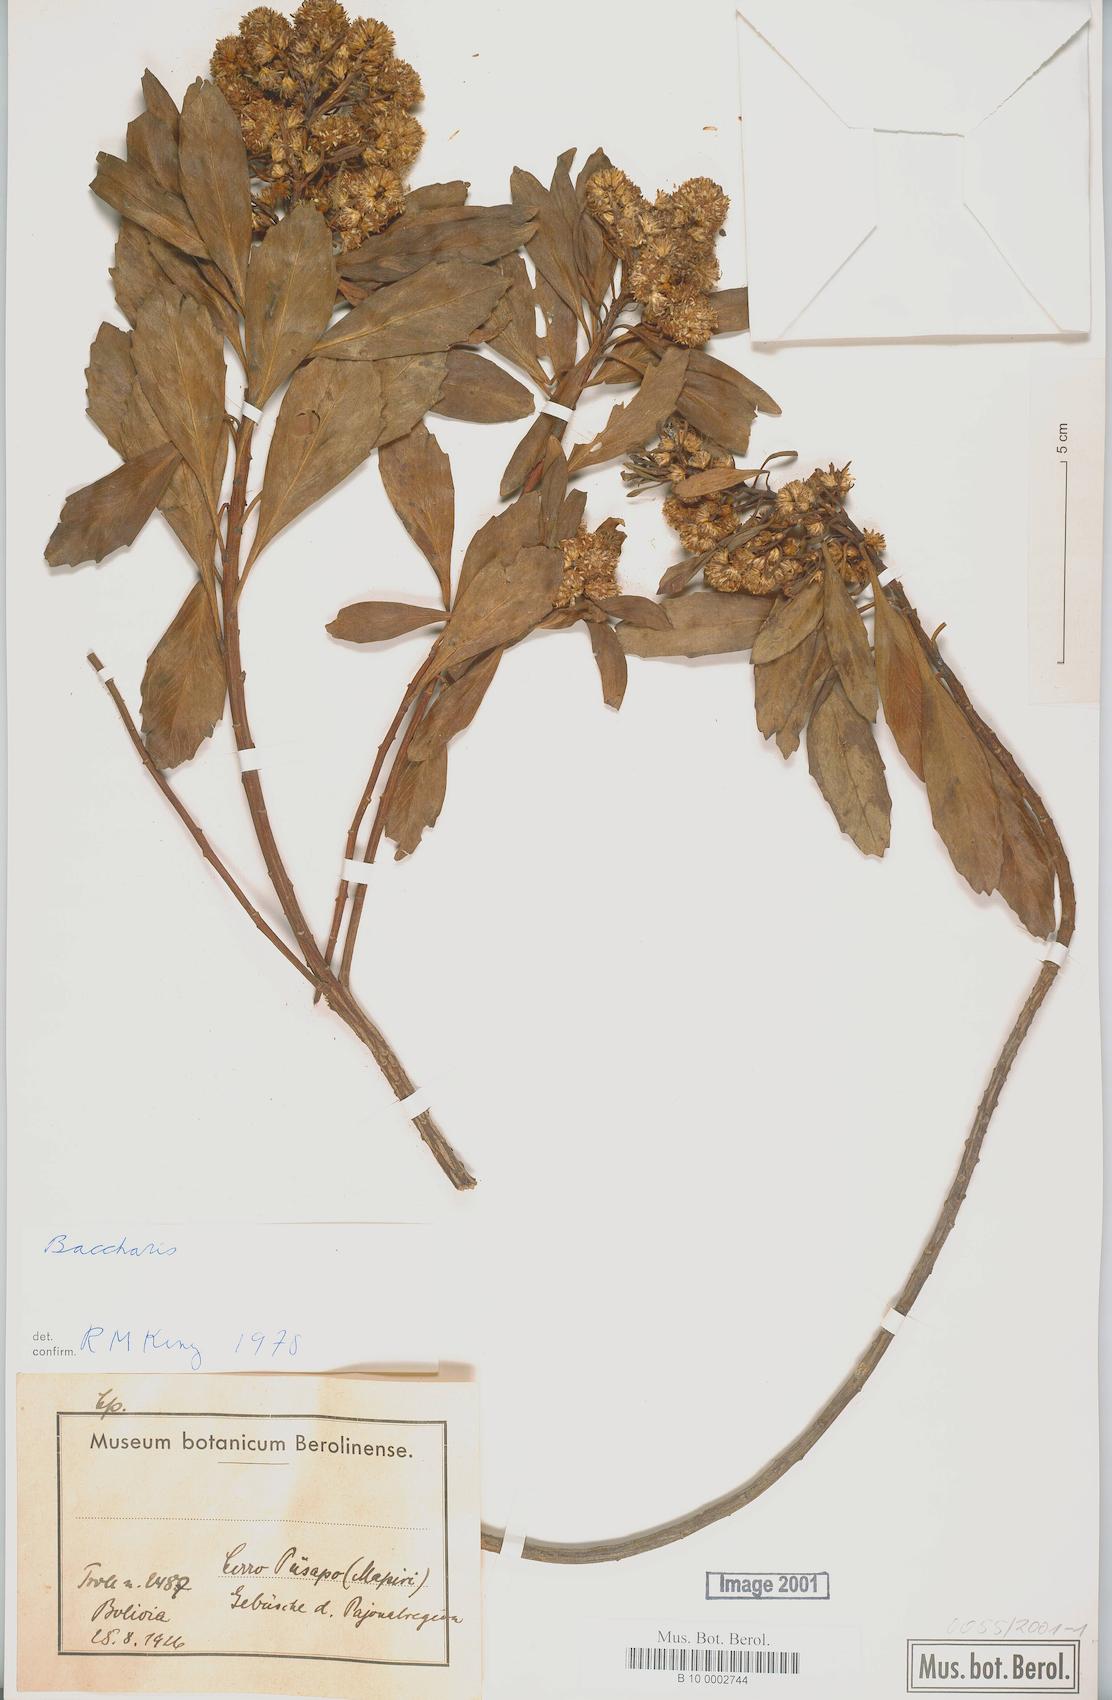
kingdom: Plantae
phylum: Tracheophyta
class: Magnoliopsida
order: Asterales
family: Asteraceae
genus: Baccharis
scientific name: Baccharis
